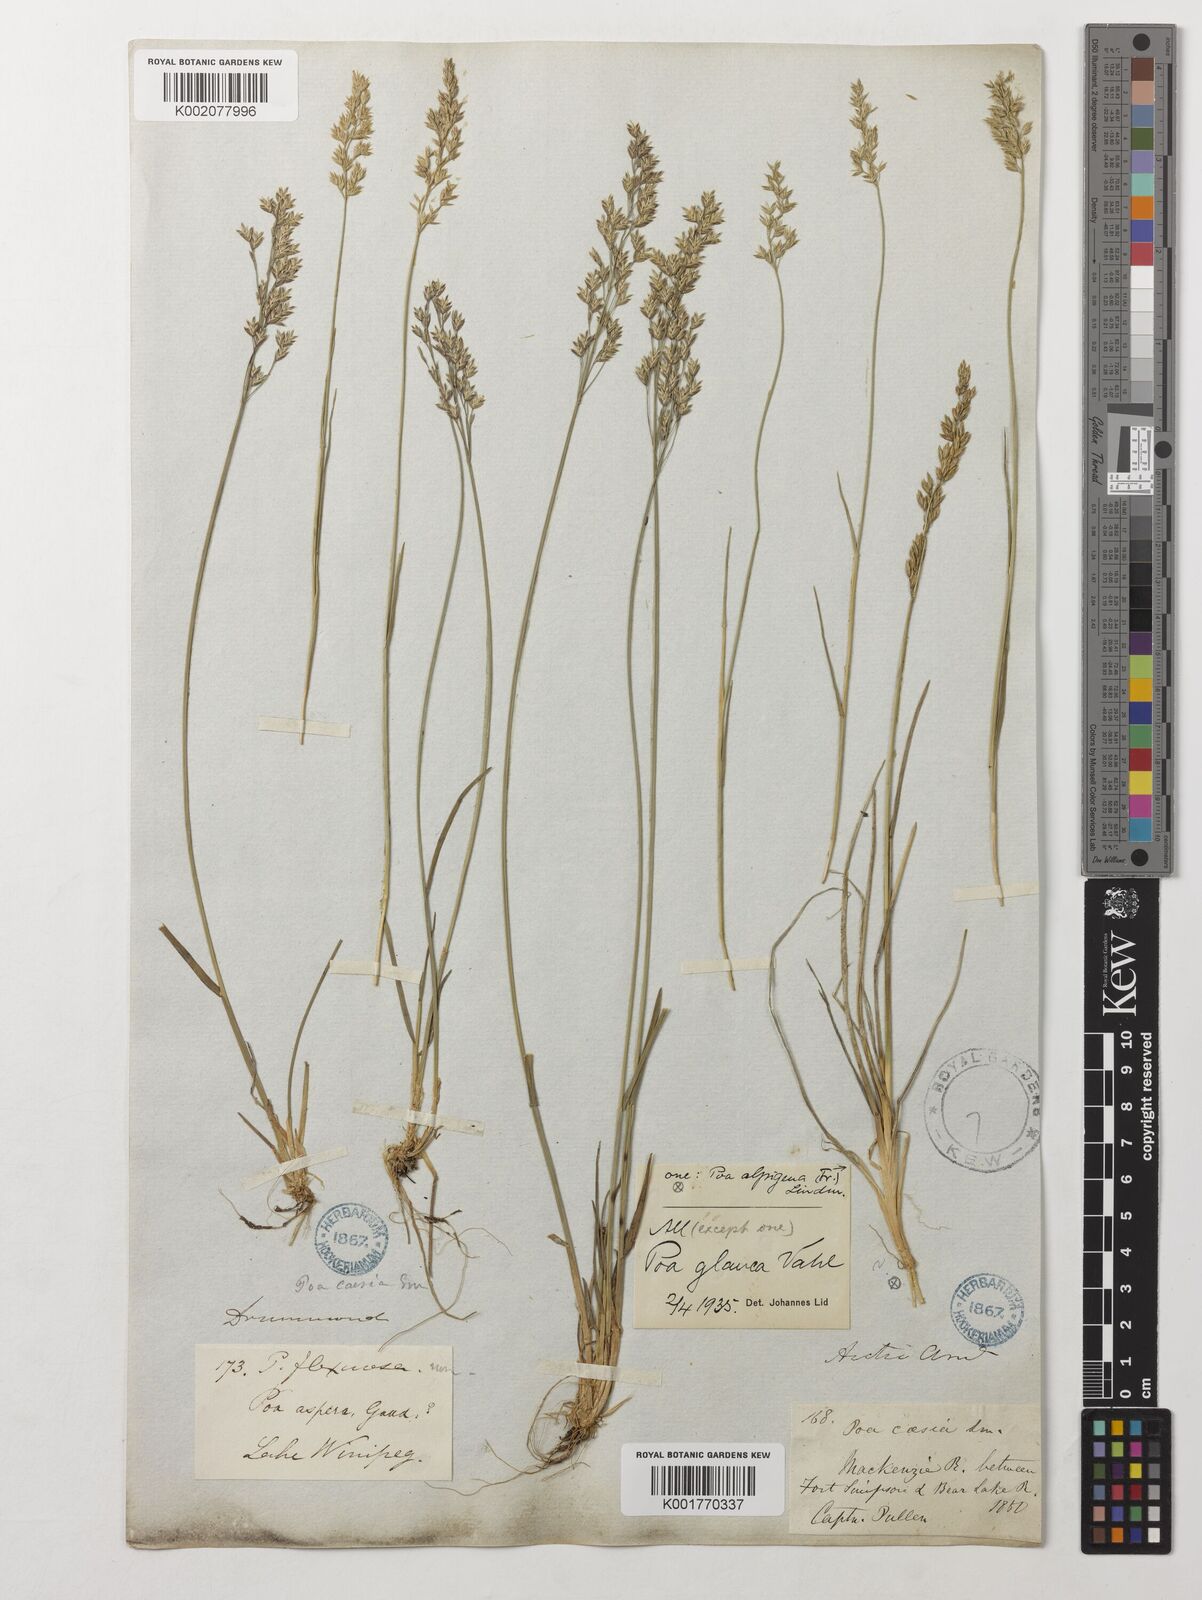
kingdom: Plantae
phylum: Tracheophyta
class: Liliopsida
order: Poales
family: Poaceae
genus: Poa
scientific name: Poa glauca
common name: Glaucous bluegrass
